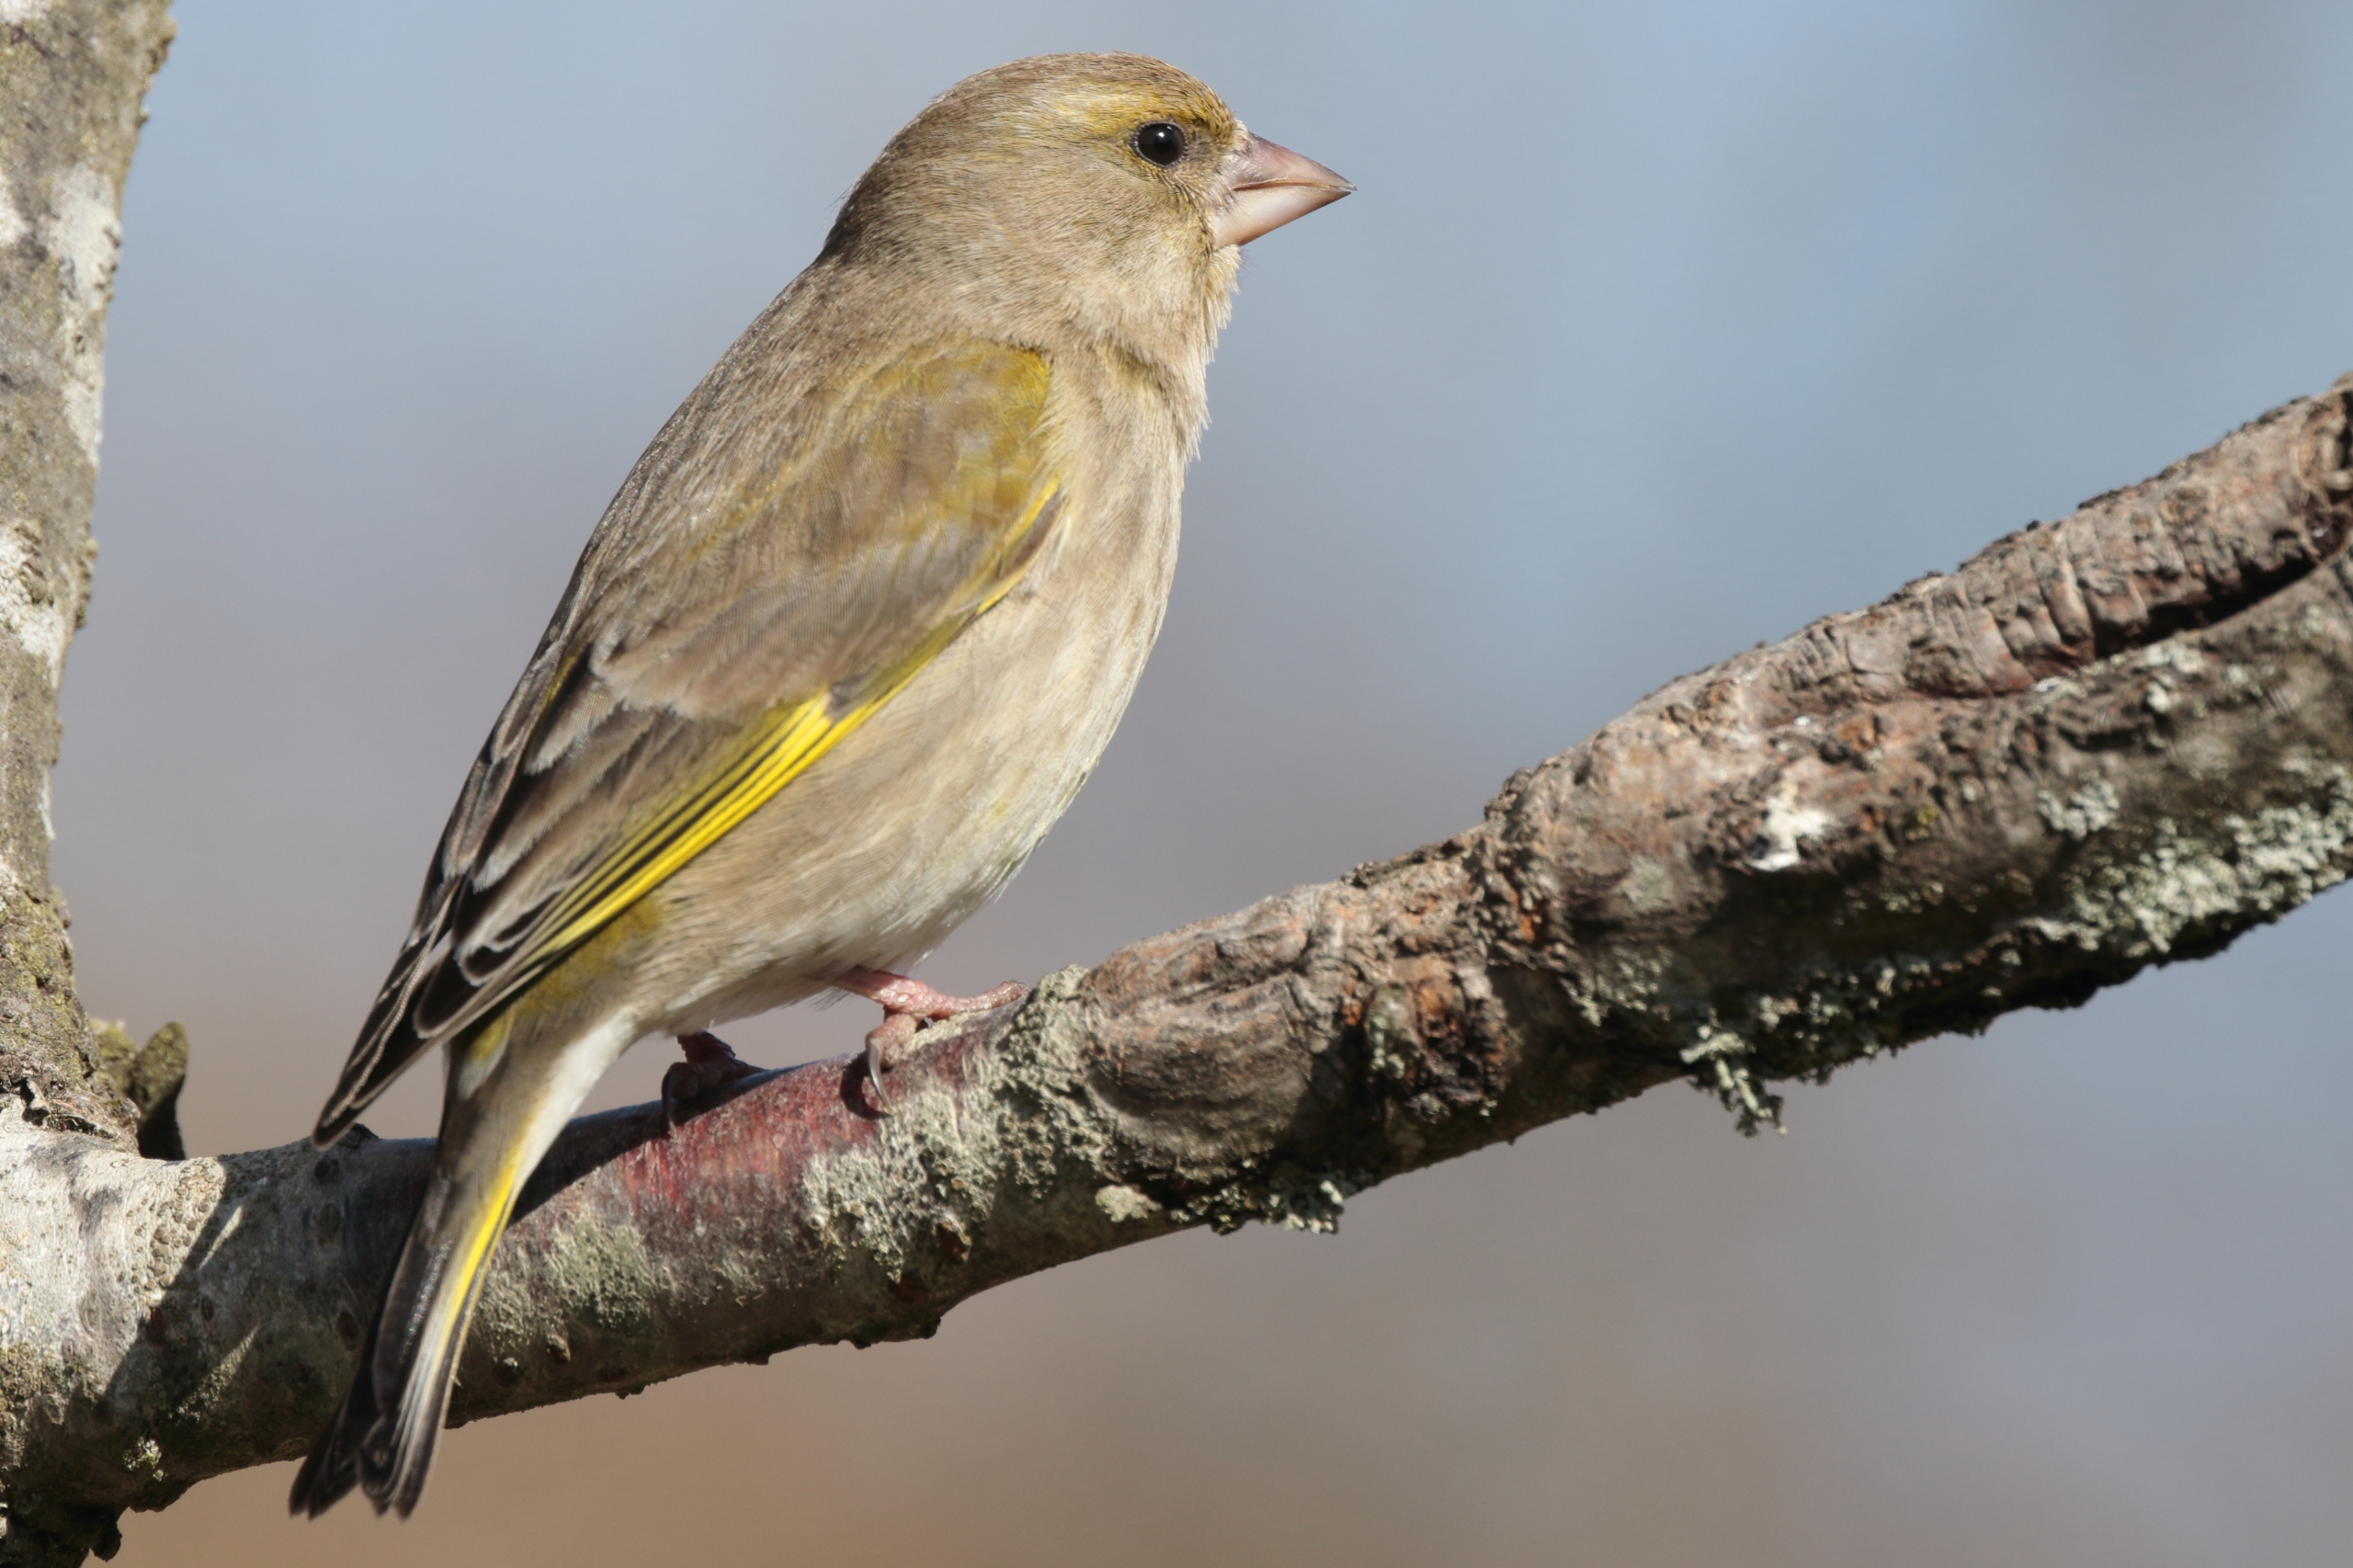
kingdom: Plantae
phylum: Tracheophyta
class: Liliopsida
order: Poales
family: Poaceae
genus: Chloris
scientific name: Chloris chloris
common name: Grønirisk
